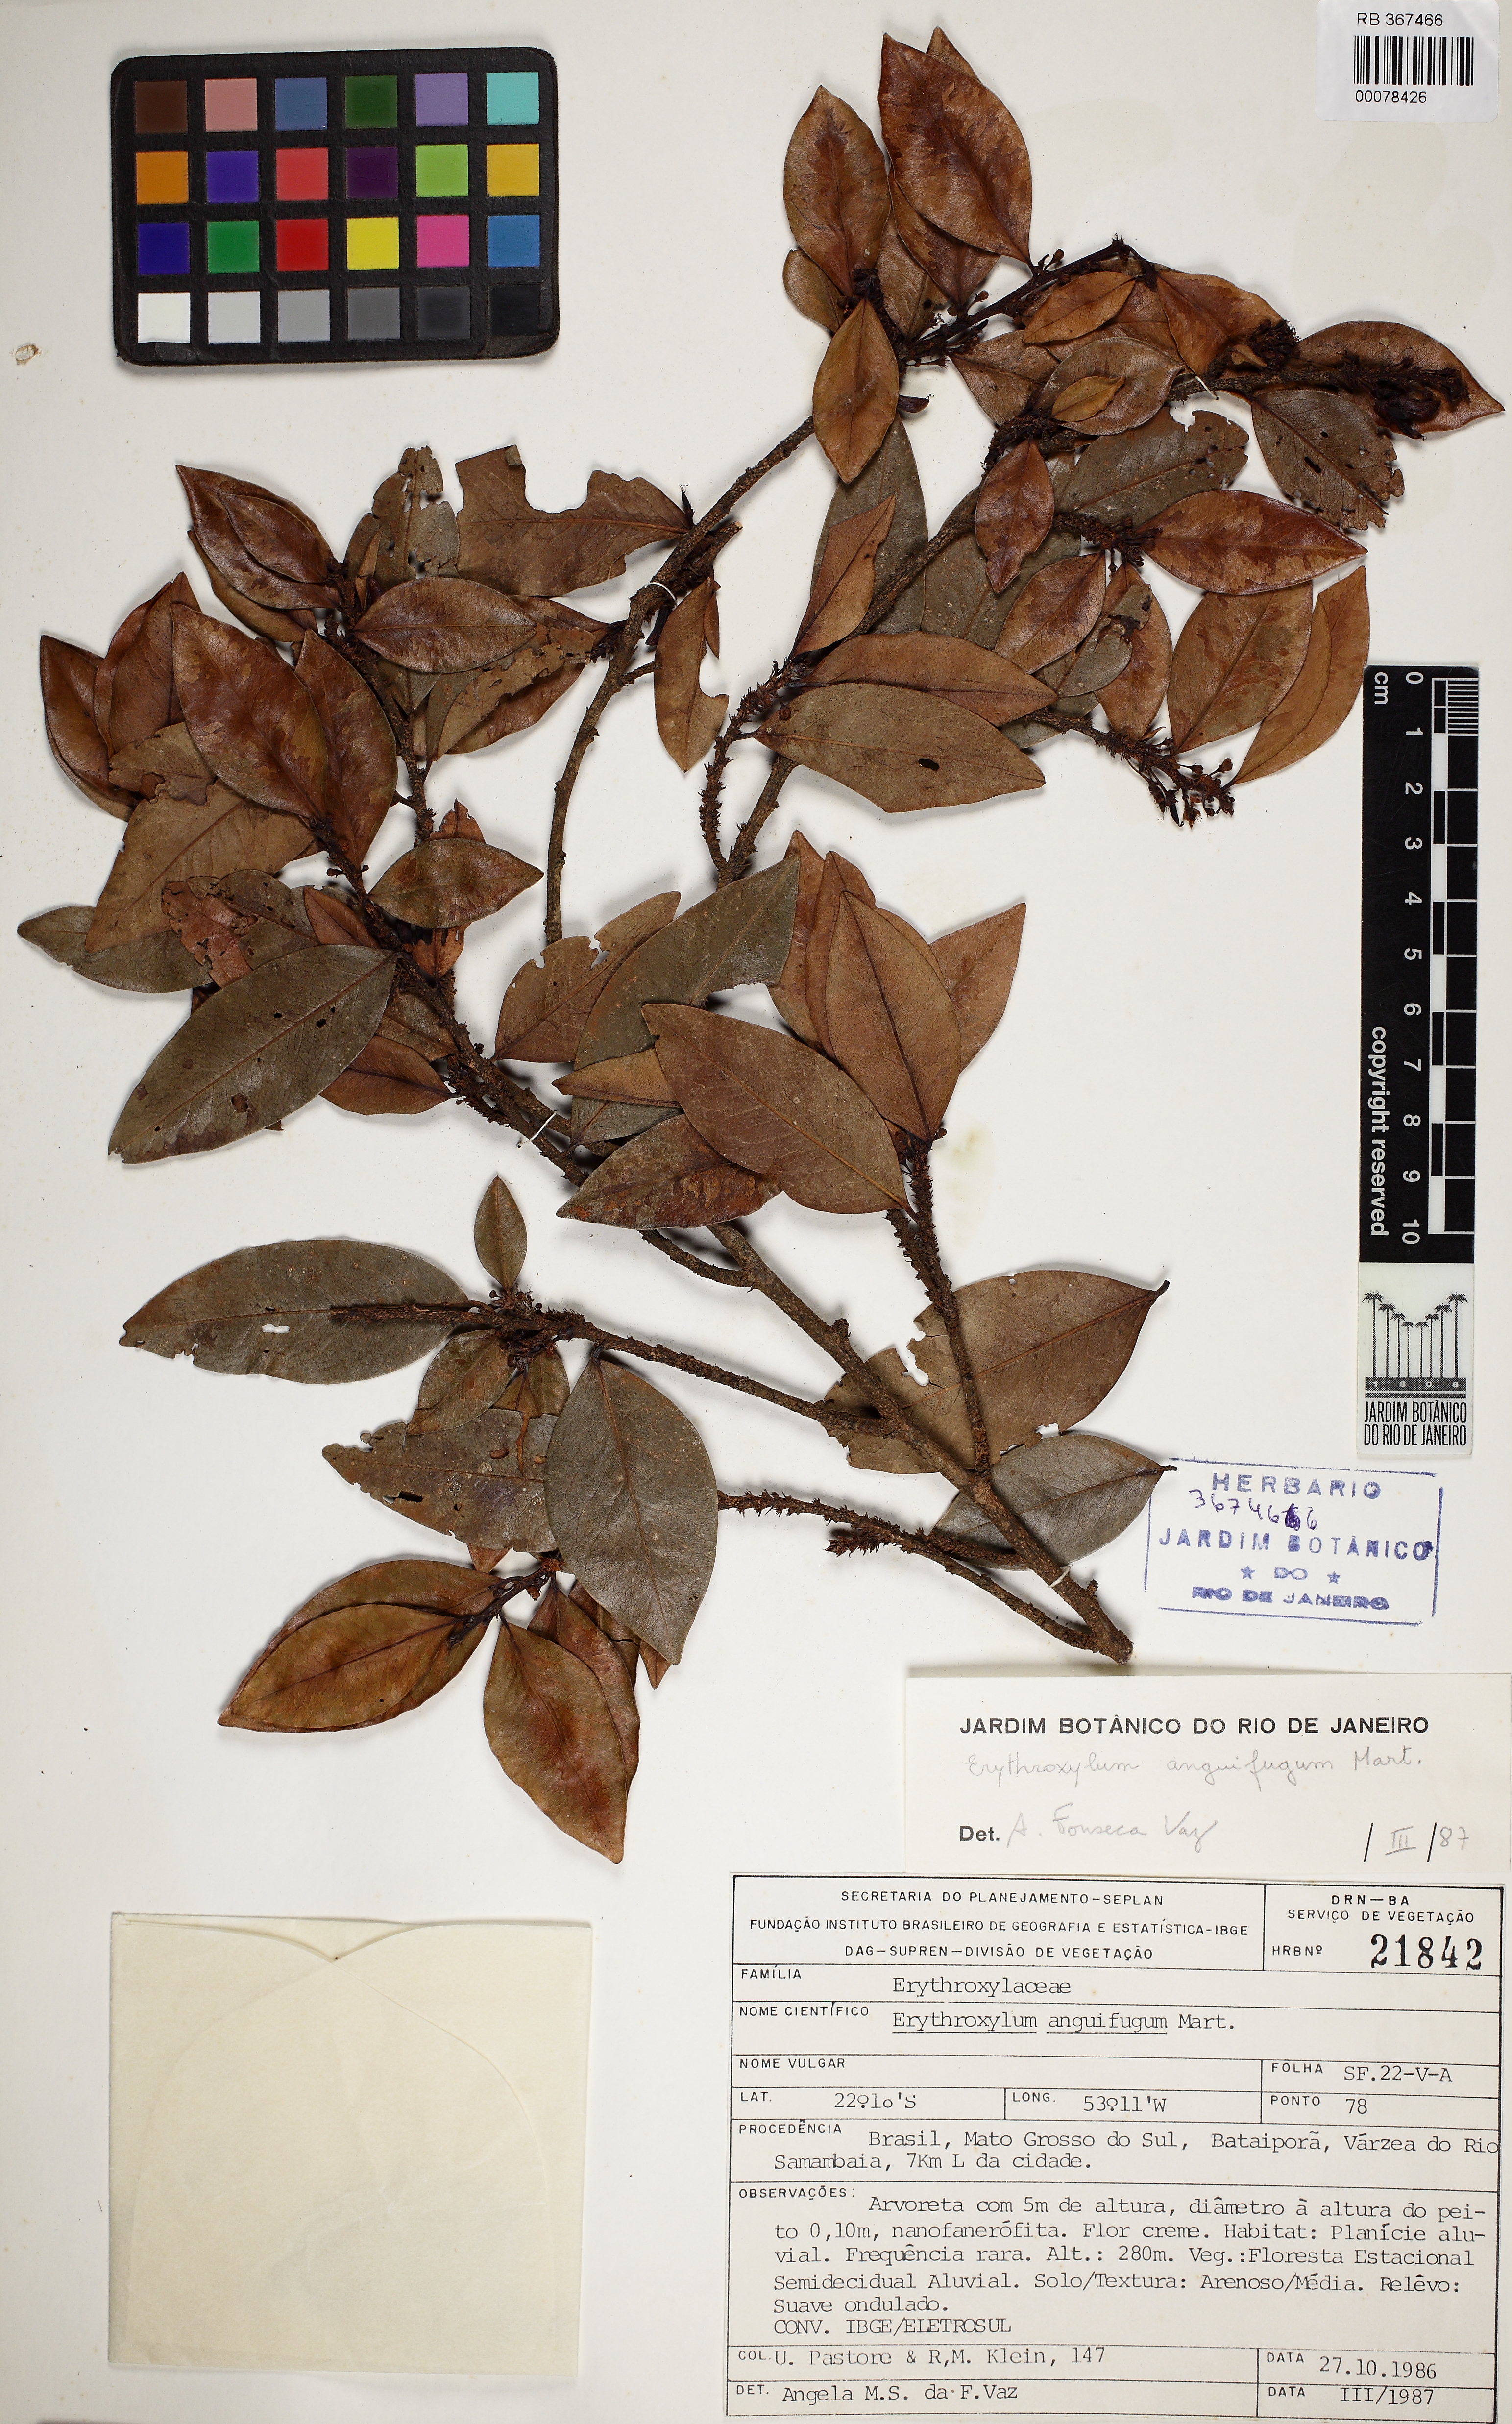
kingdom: Plantae
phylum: Tracheophyta
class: Magnoliopsida
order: Malpighiales
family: Erythroxylaceae
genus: Erythroxylum
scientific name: Erythroxylum anguifugum
